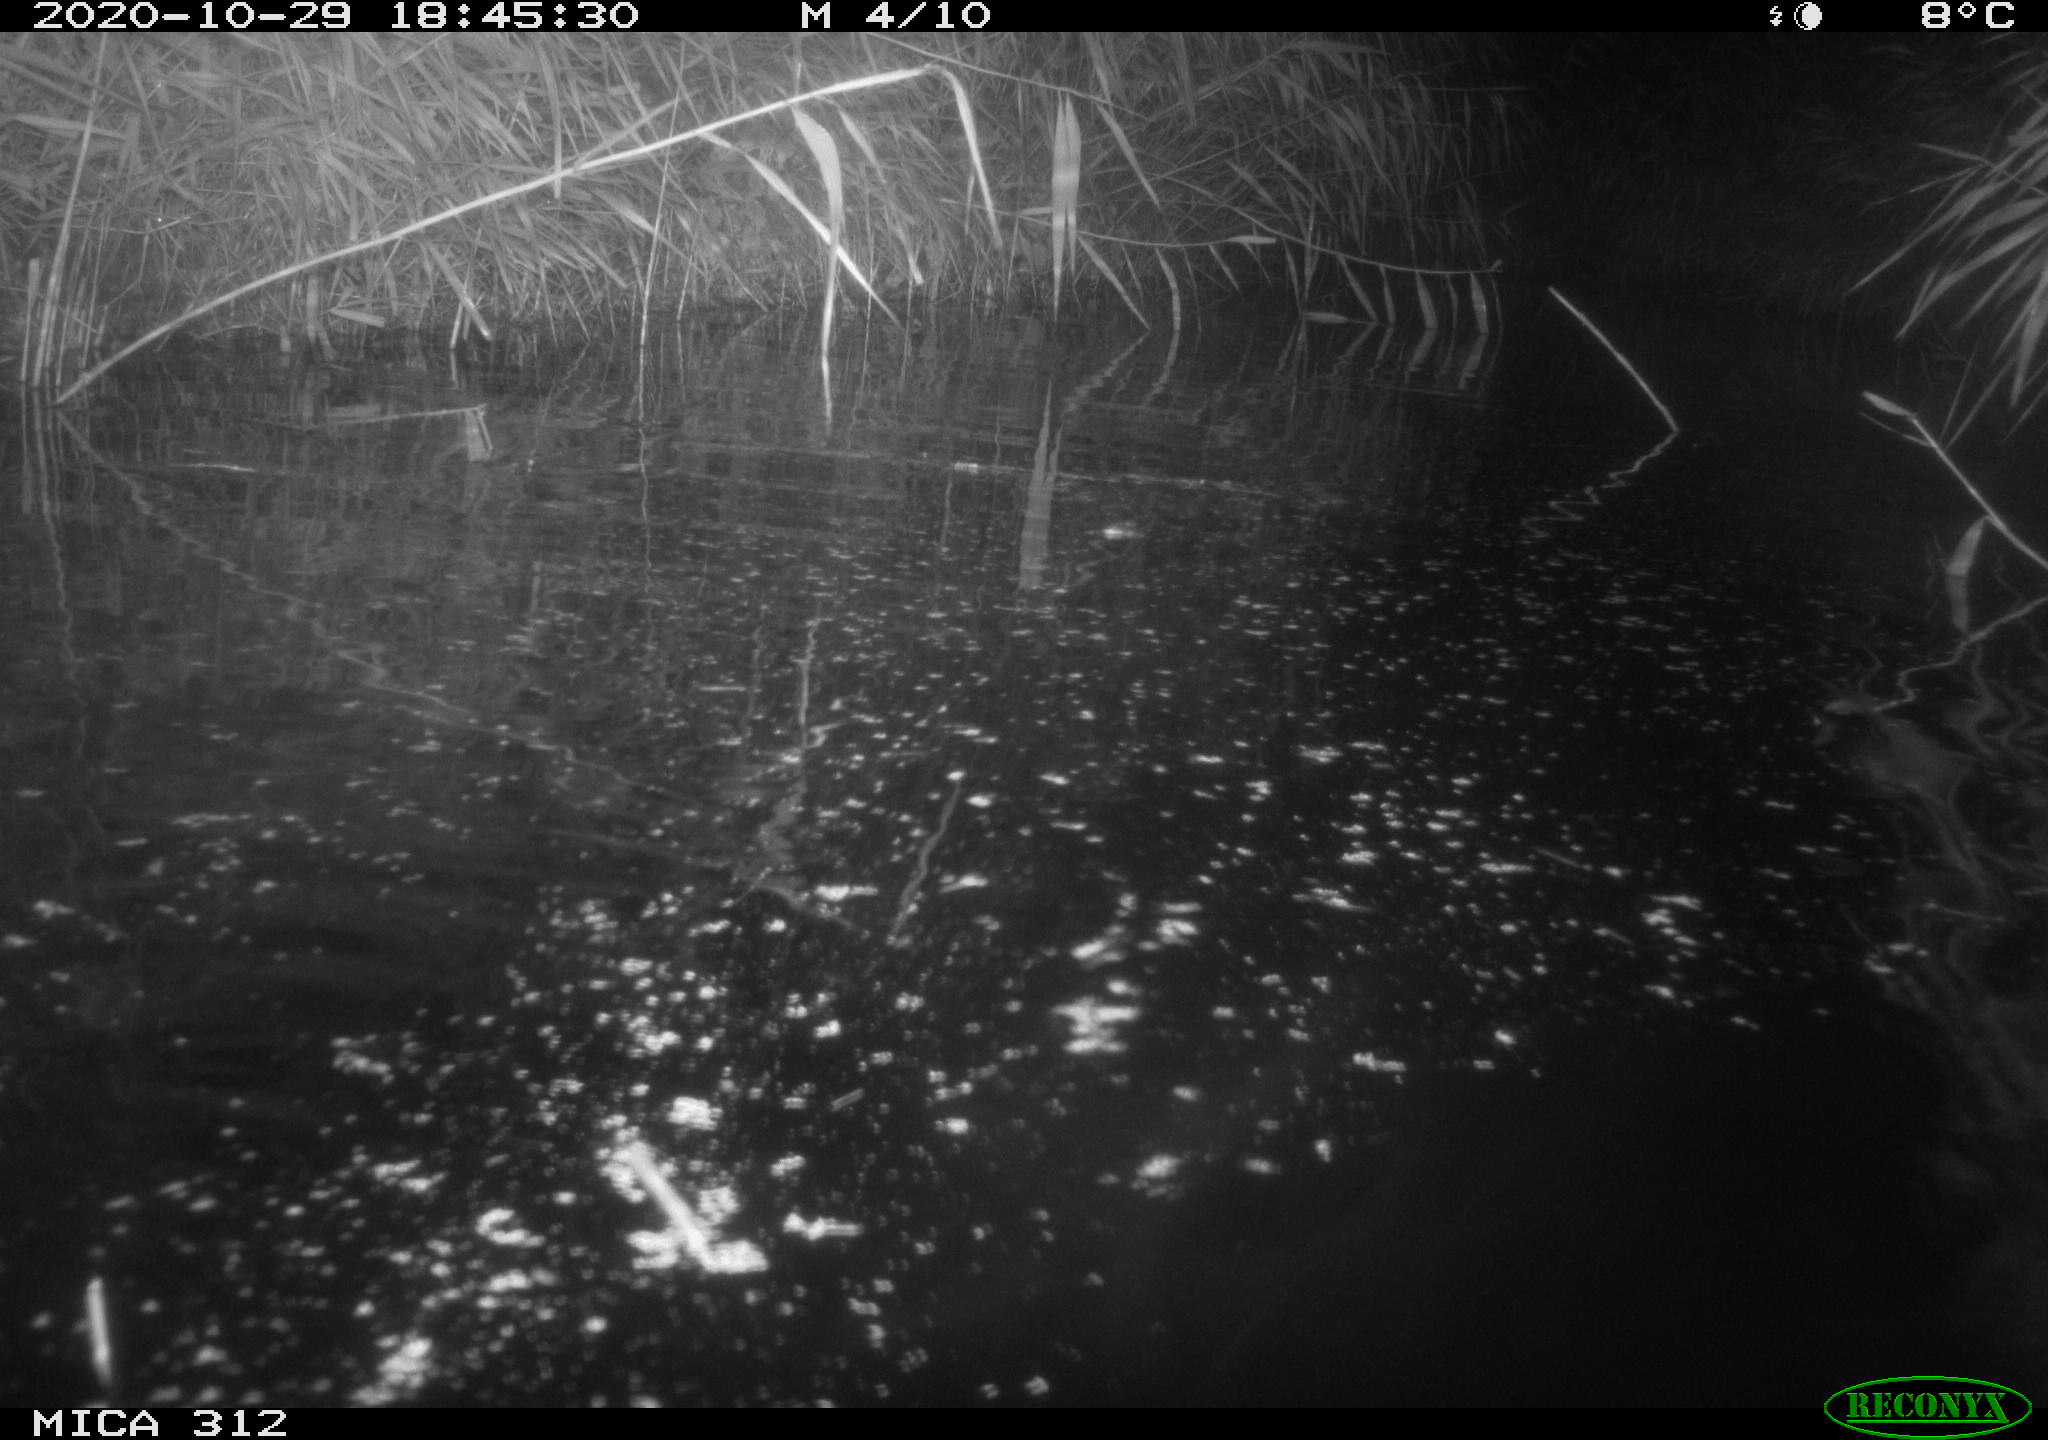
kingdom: Animalia
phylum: Chordata
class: Mammalia
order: Rodentia
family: Muridae
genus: Rattus
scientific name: Rattus norvegicus
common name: Brown rat
